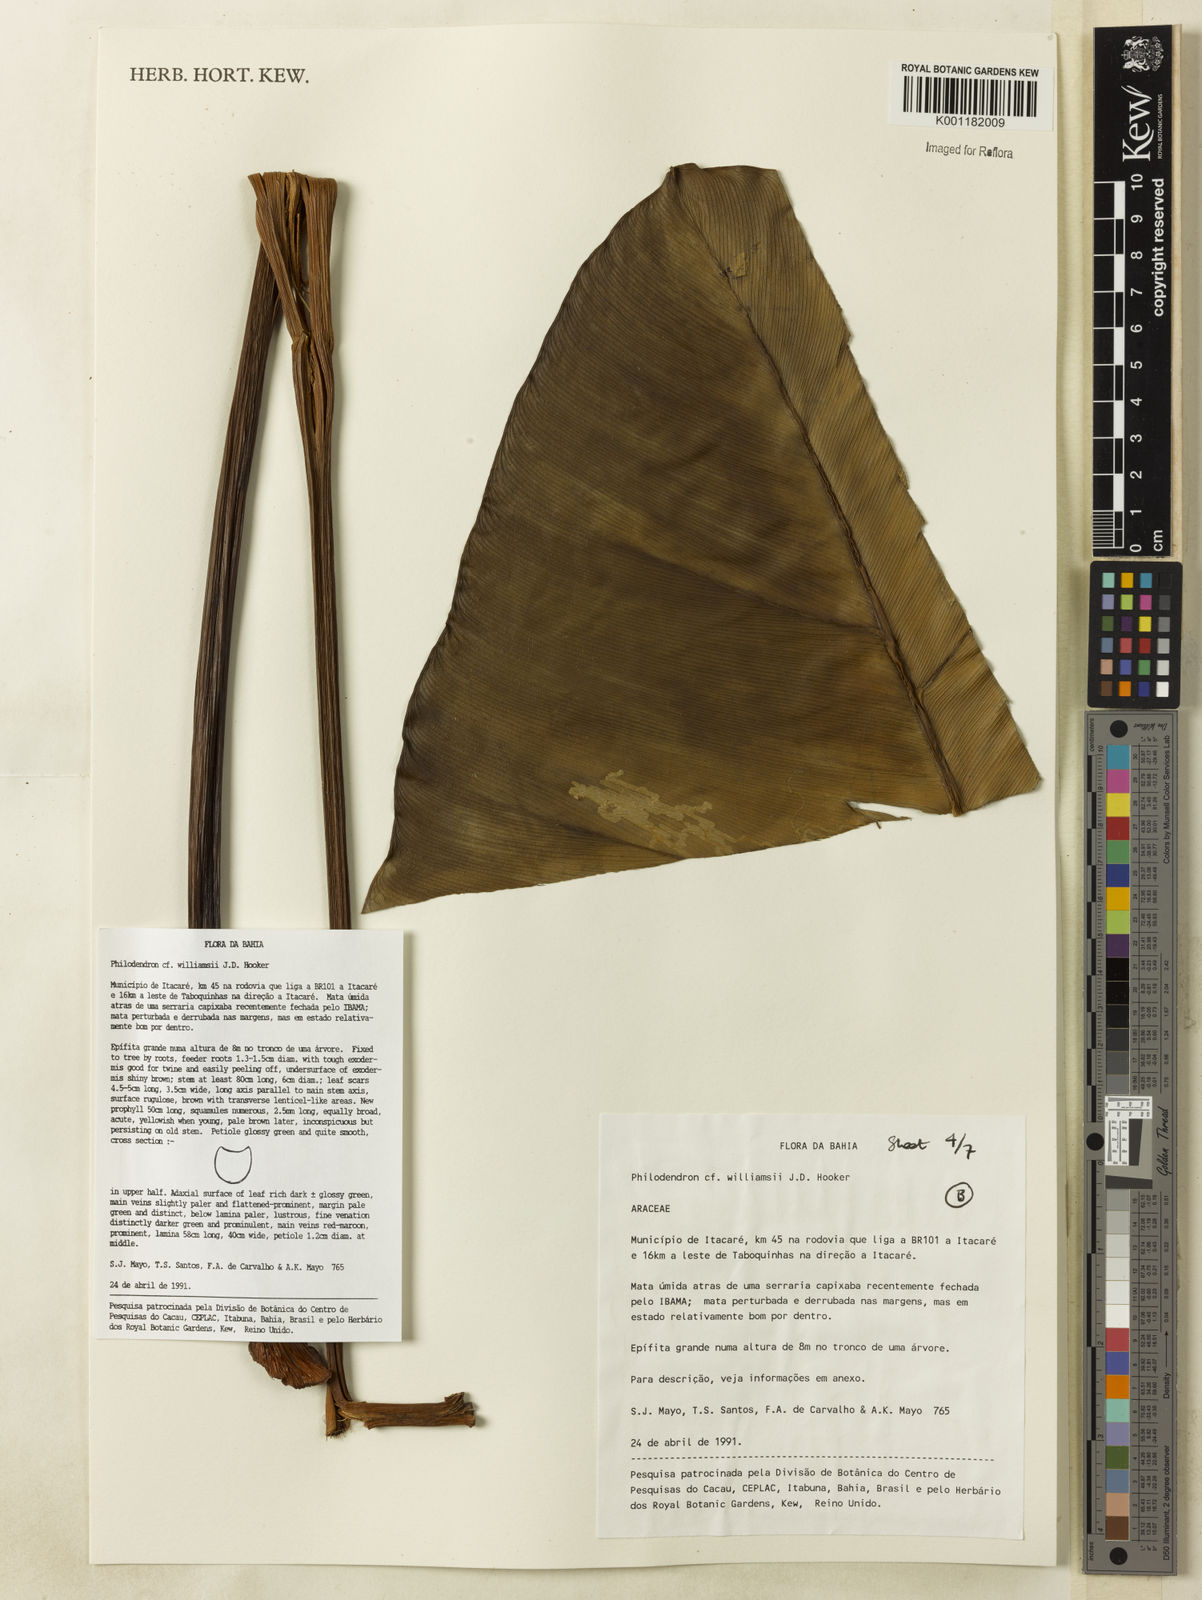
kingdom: Plantae
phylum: Tracheophyta
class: Liliopsida
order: Alismatales
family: Araceae
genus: Thaumatophyllum
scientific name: Thaumatophyllum williamsii
